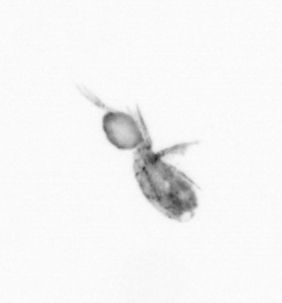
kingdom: Animalia
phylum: Arthropoda
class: Copepoda
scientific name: Copepoda
